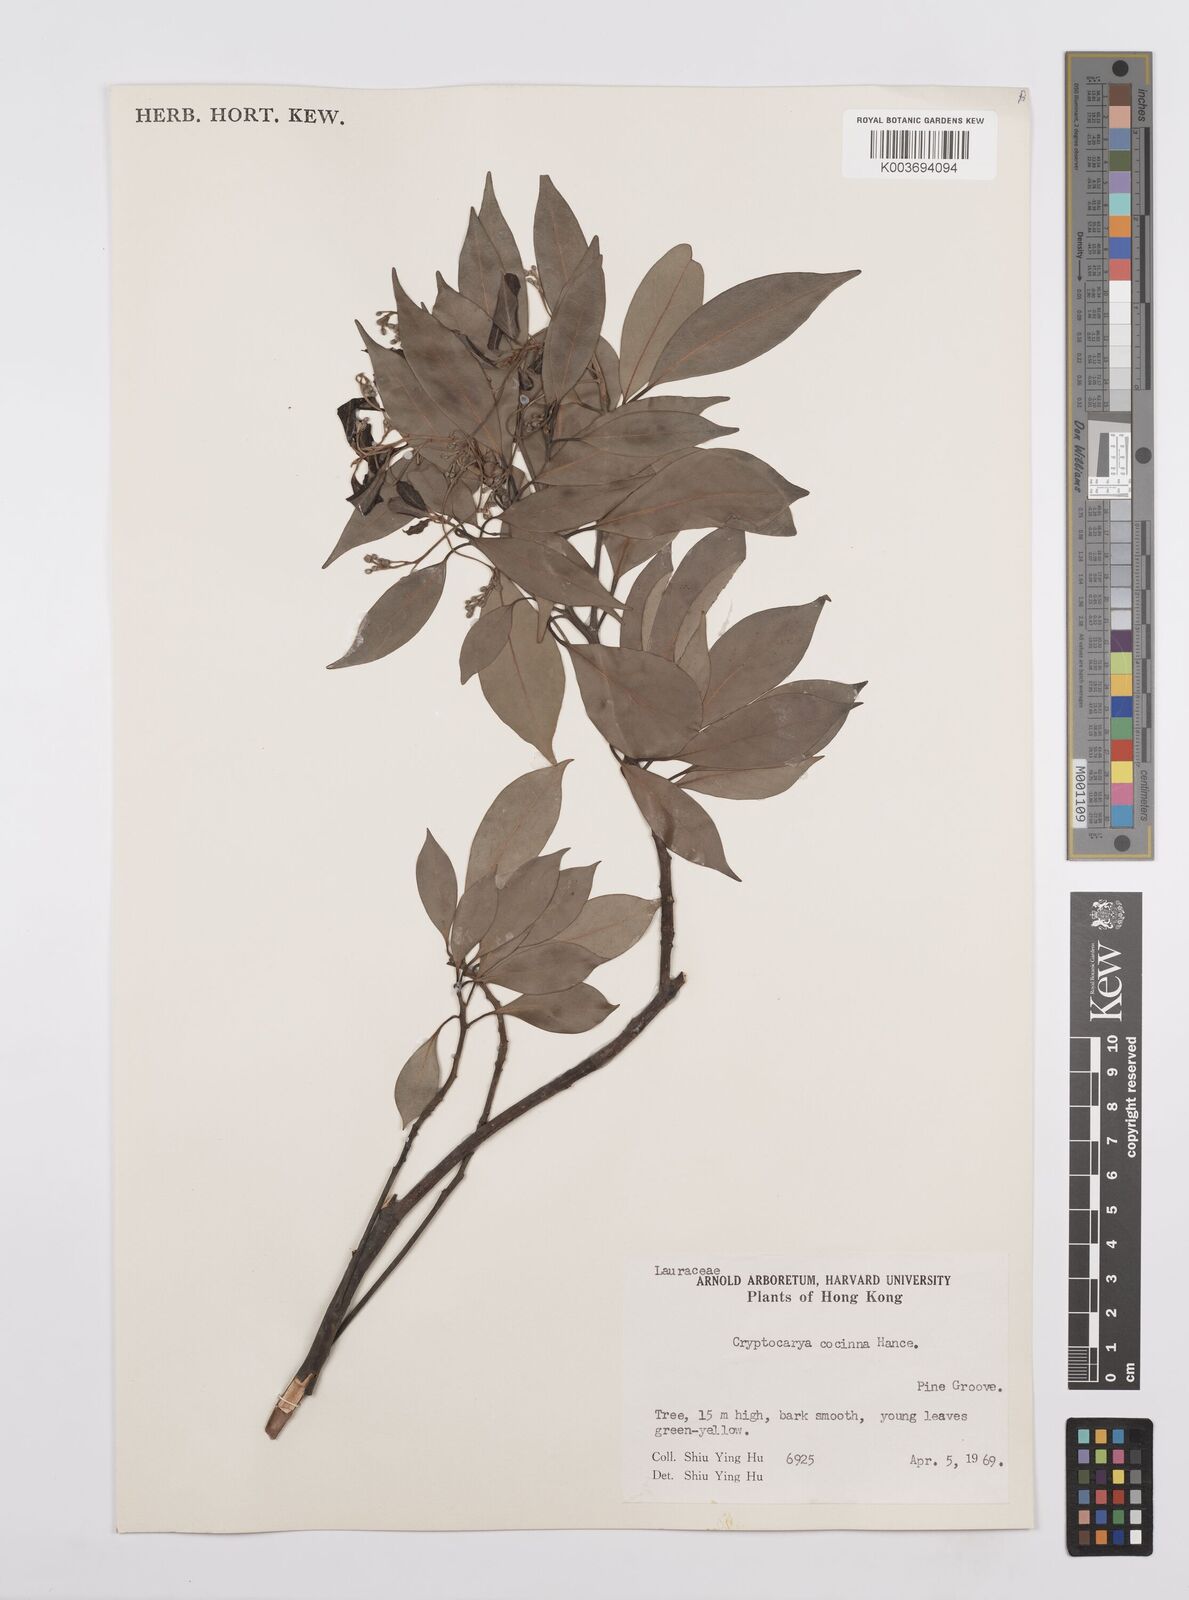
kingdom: Plantae
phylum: Tracheophyta
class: Magnoliopsida
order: Laurales
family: Lauraceae
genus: Cryptocarya
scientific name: Cryptocarya concinna
